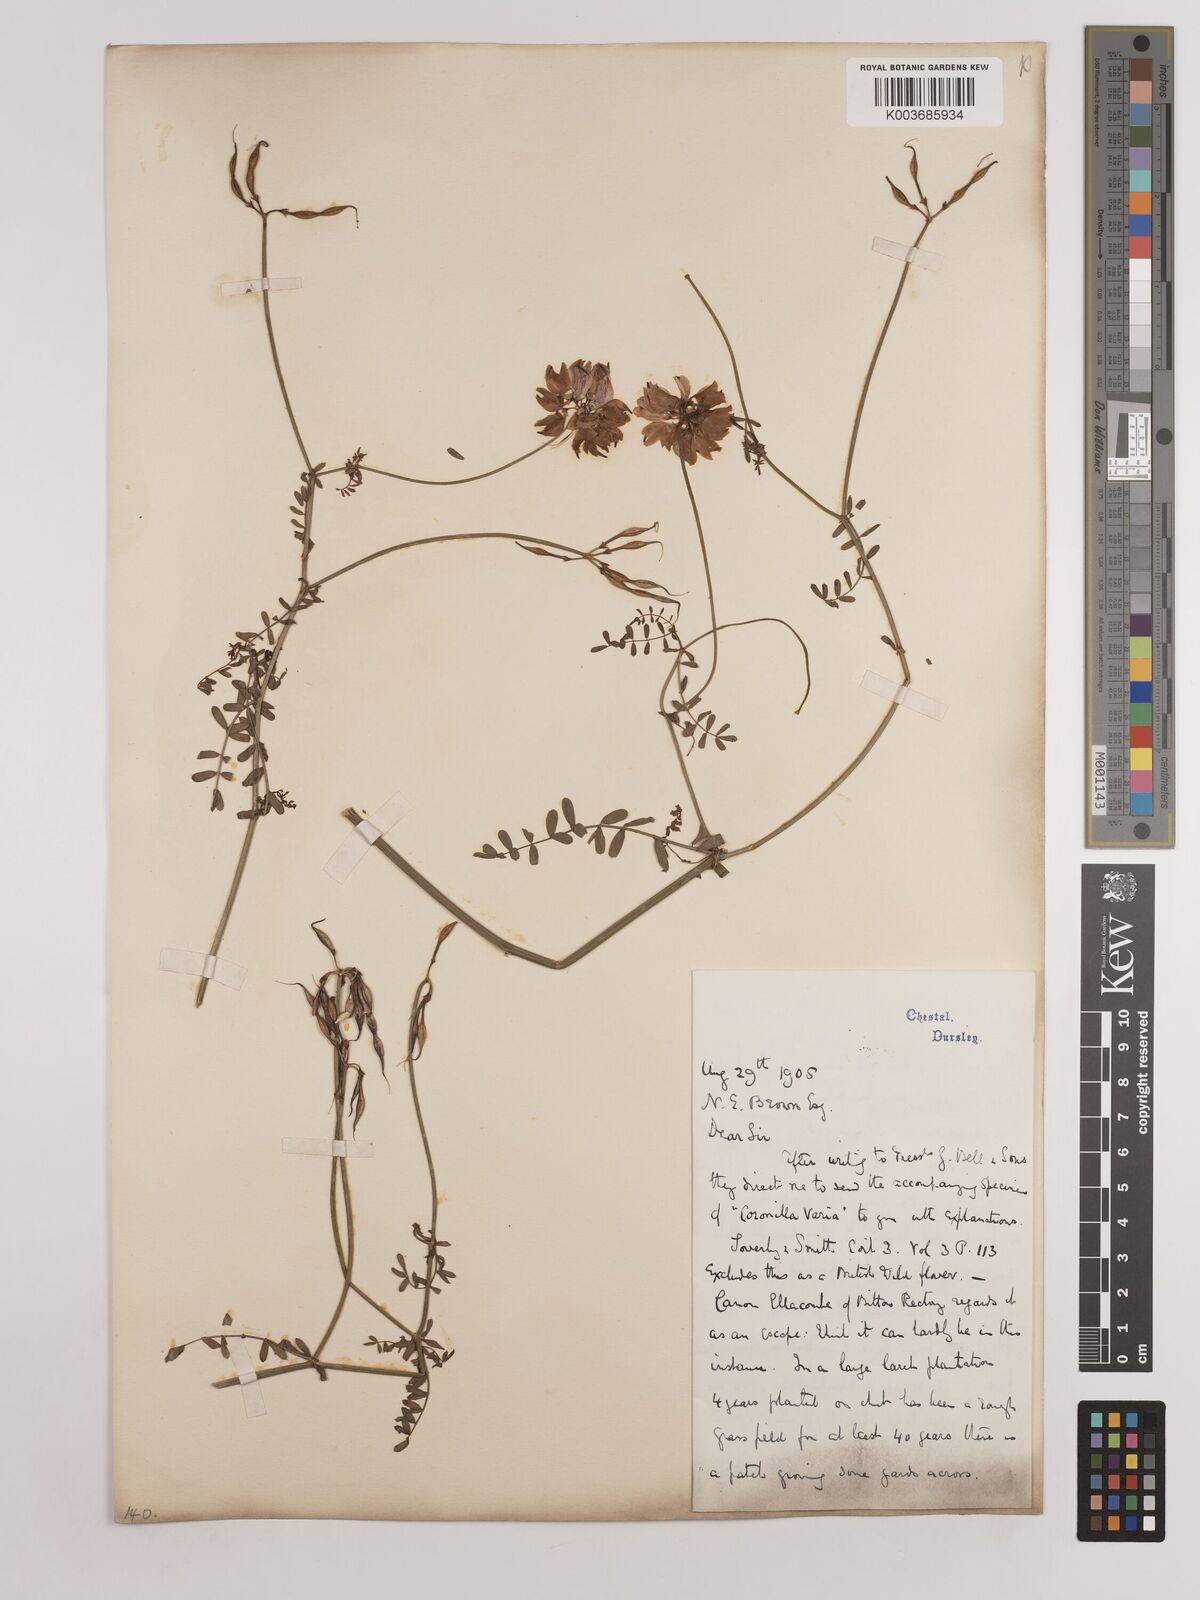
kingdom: Plantae
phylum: Tracheophyta
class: Magnoliopsida
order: Fabales
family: Fabaceae
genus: Coronilla
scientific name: Coronilla varia
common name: Crownvetch
